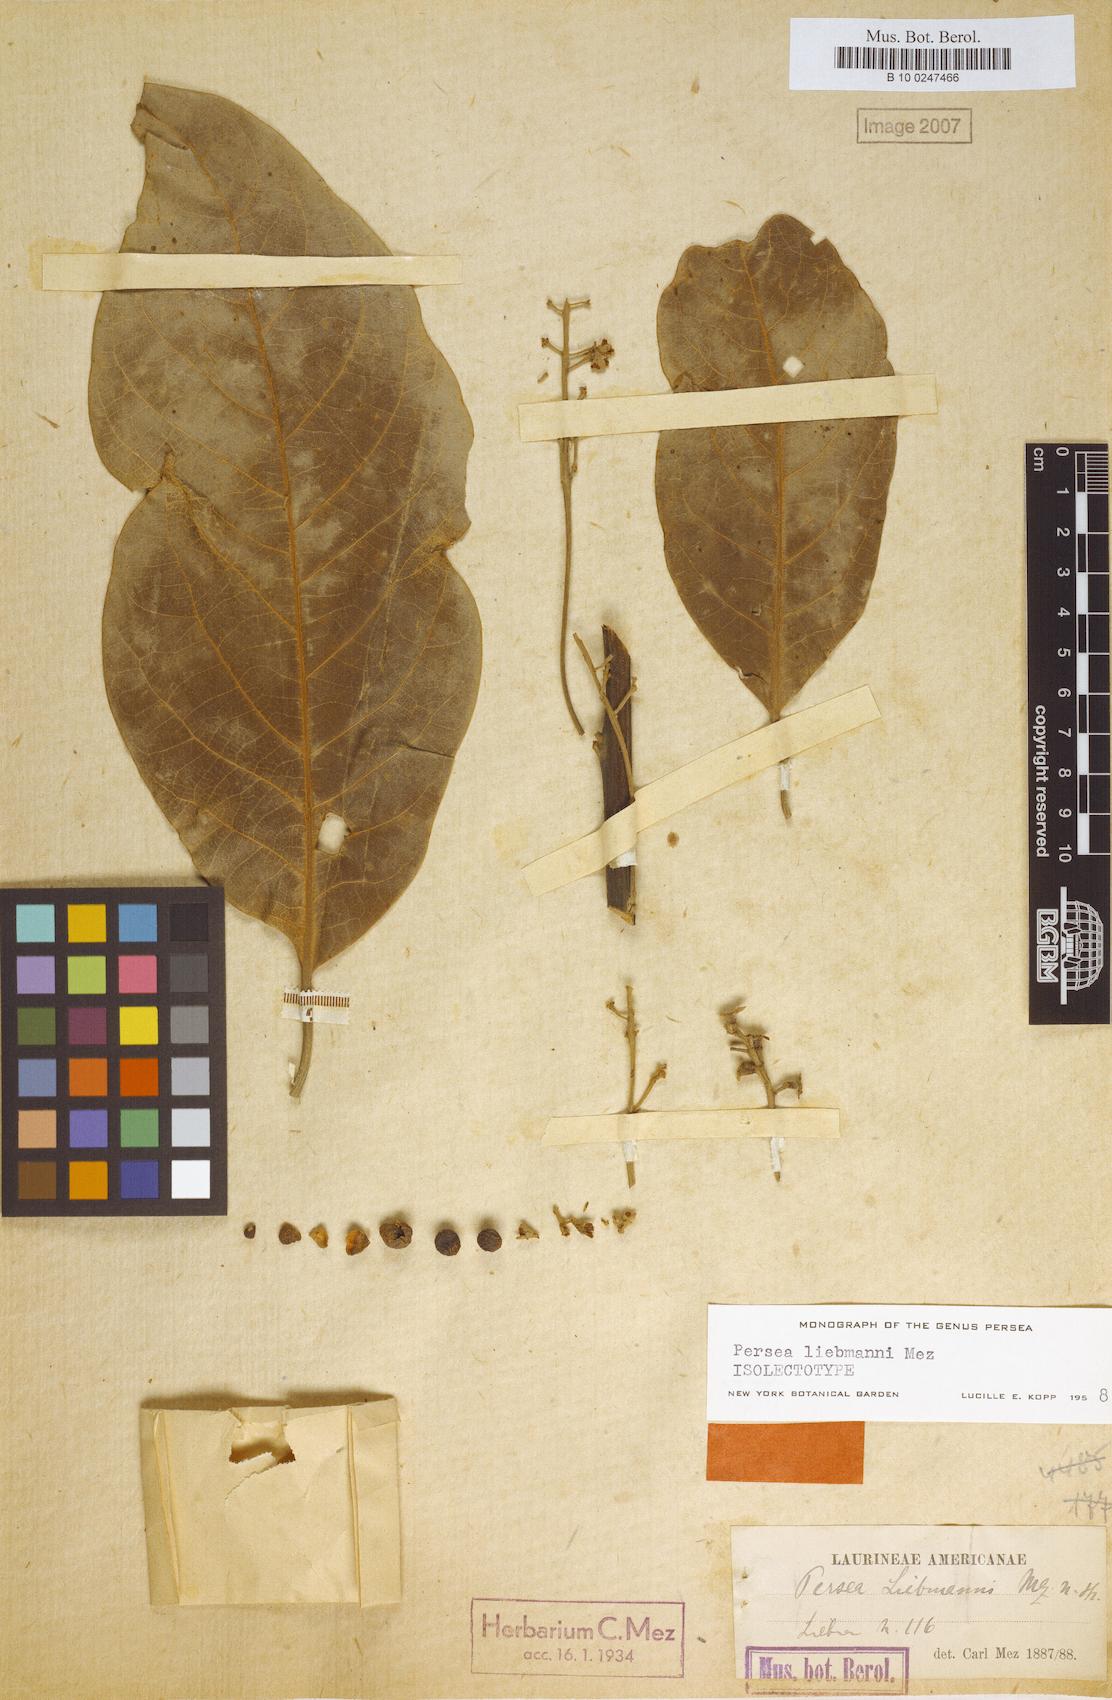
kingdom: Plantae
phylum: Tracheophyta
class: Magnoliopsida
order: Laurales
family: Lauraceae
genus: Persea
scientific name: Persea liebmannii
